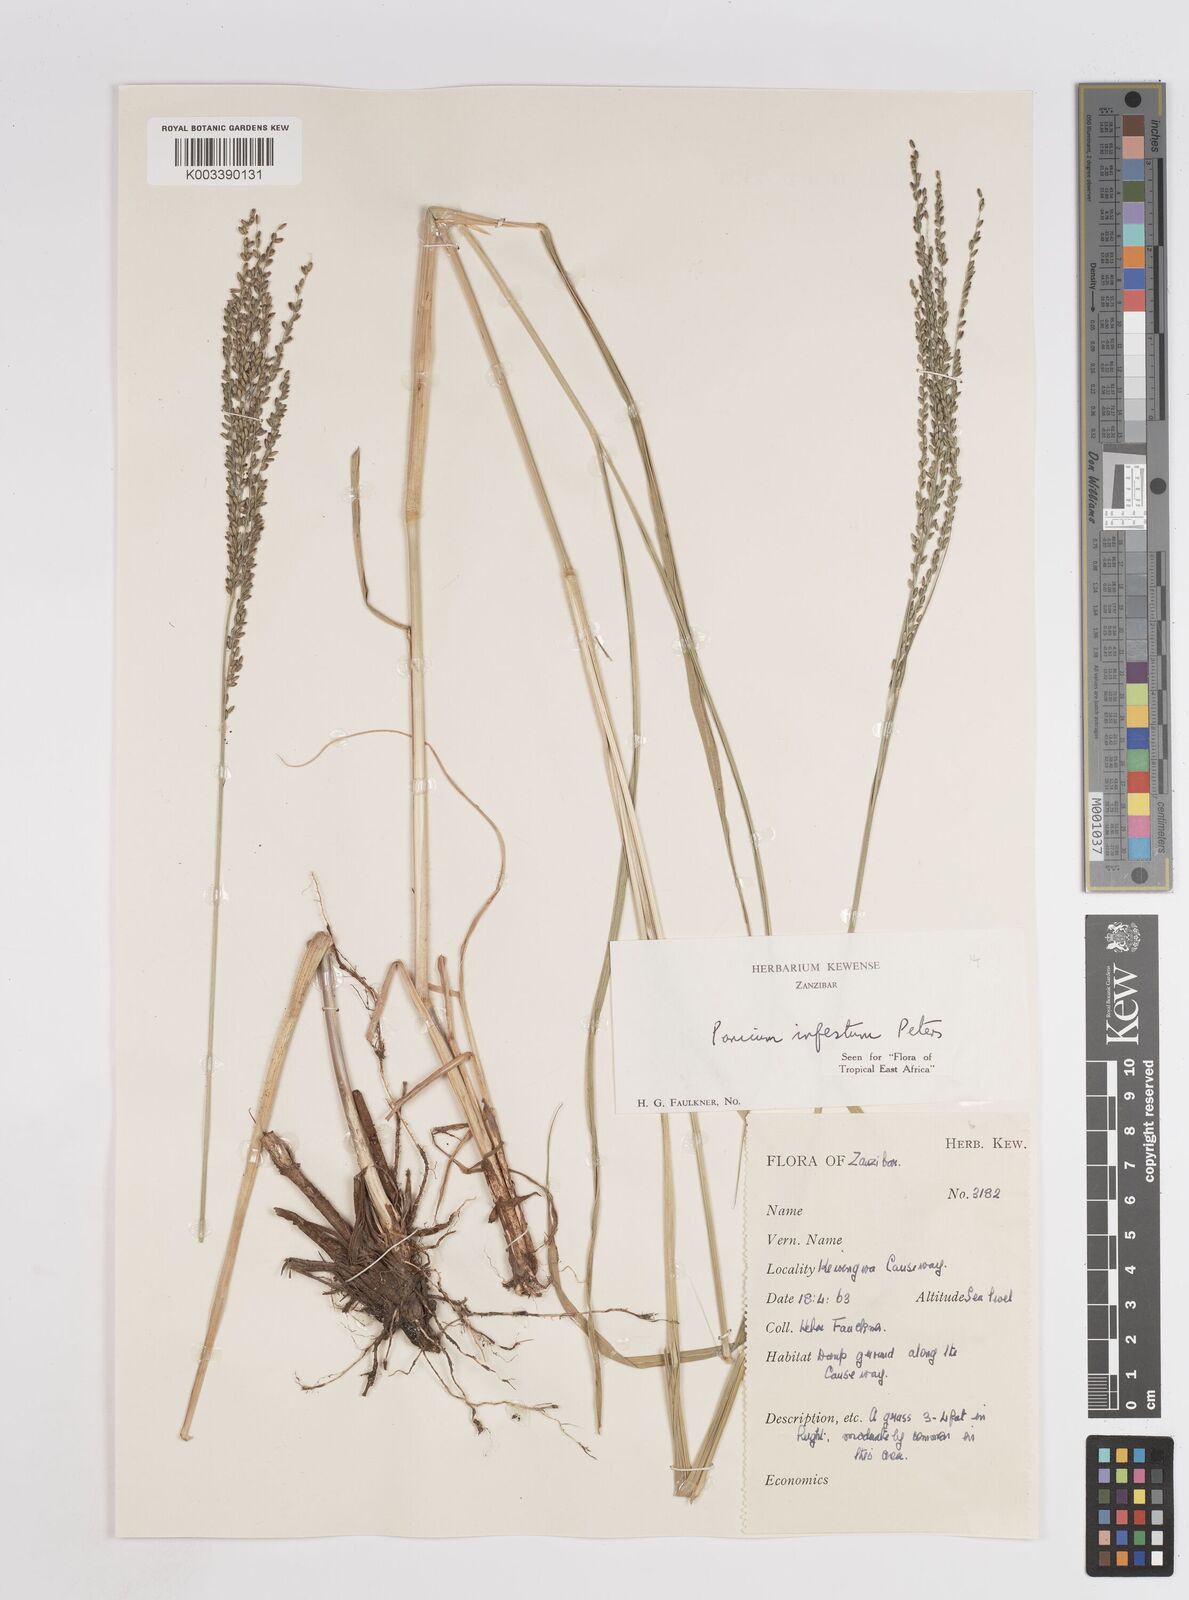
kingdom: Plantae
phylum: Tracheophyta
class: Liliopsida
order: Poales
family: Poaceae
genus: Megathyrsus
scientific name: Megathyrsus infestus
